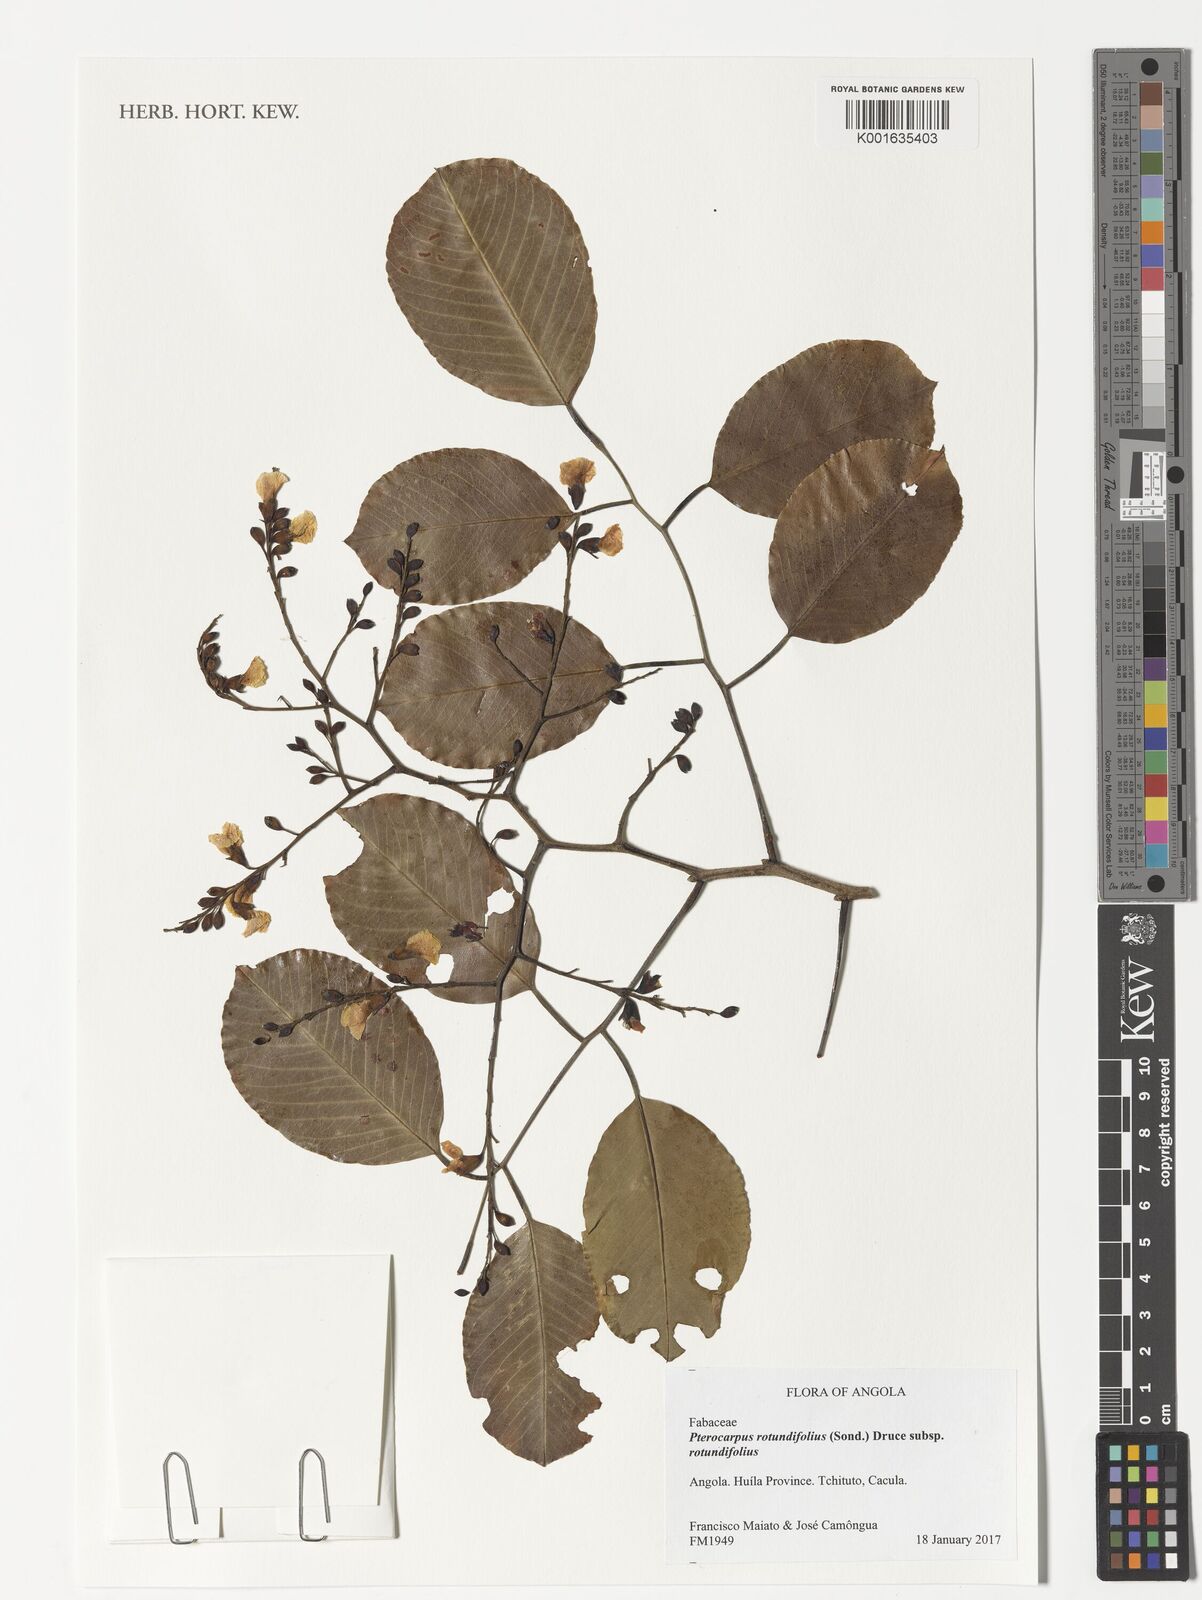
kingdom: Plantae
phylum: Tracheophyta
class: Magnoliopsida
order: Fabales
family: Fabaceae
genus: Pterocarpus
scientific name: Pterocarpus rotundifolius
